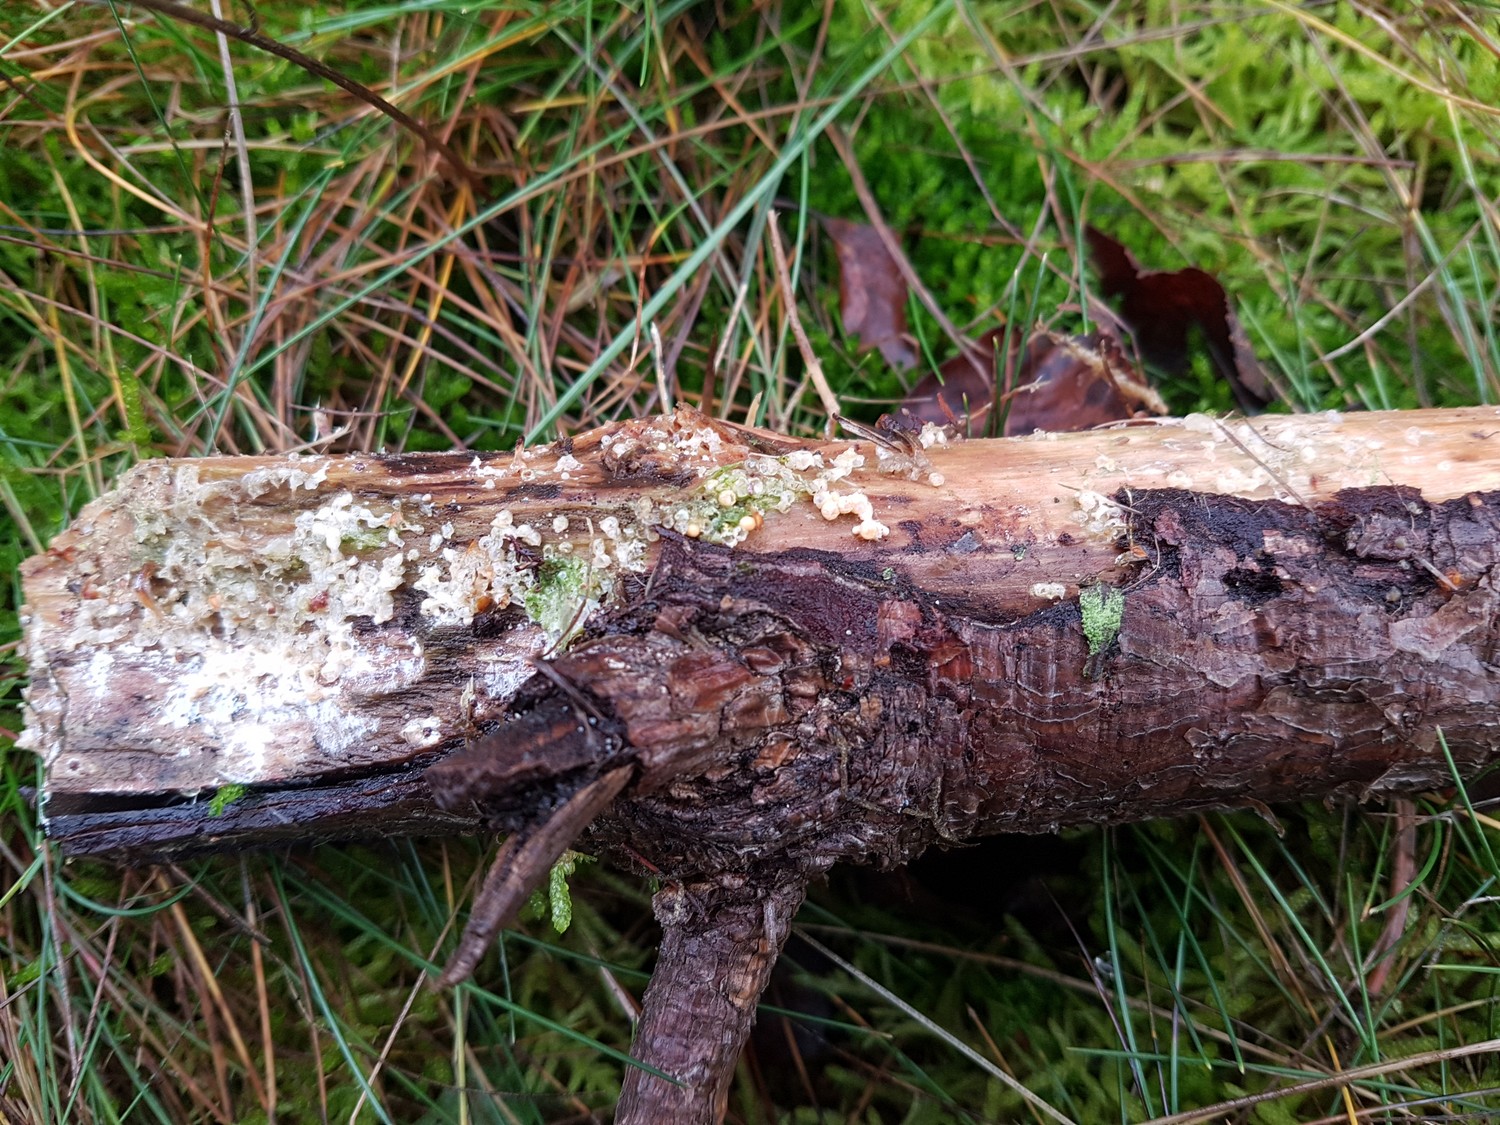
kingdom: Fungi
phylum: Basidiomycota
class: Agaricomycetes
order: Geastrales
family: Geastraceae
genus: Sphaerobolus
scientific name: Sphaerobolus stellatus
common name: bombekaster
